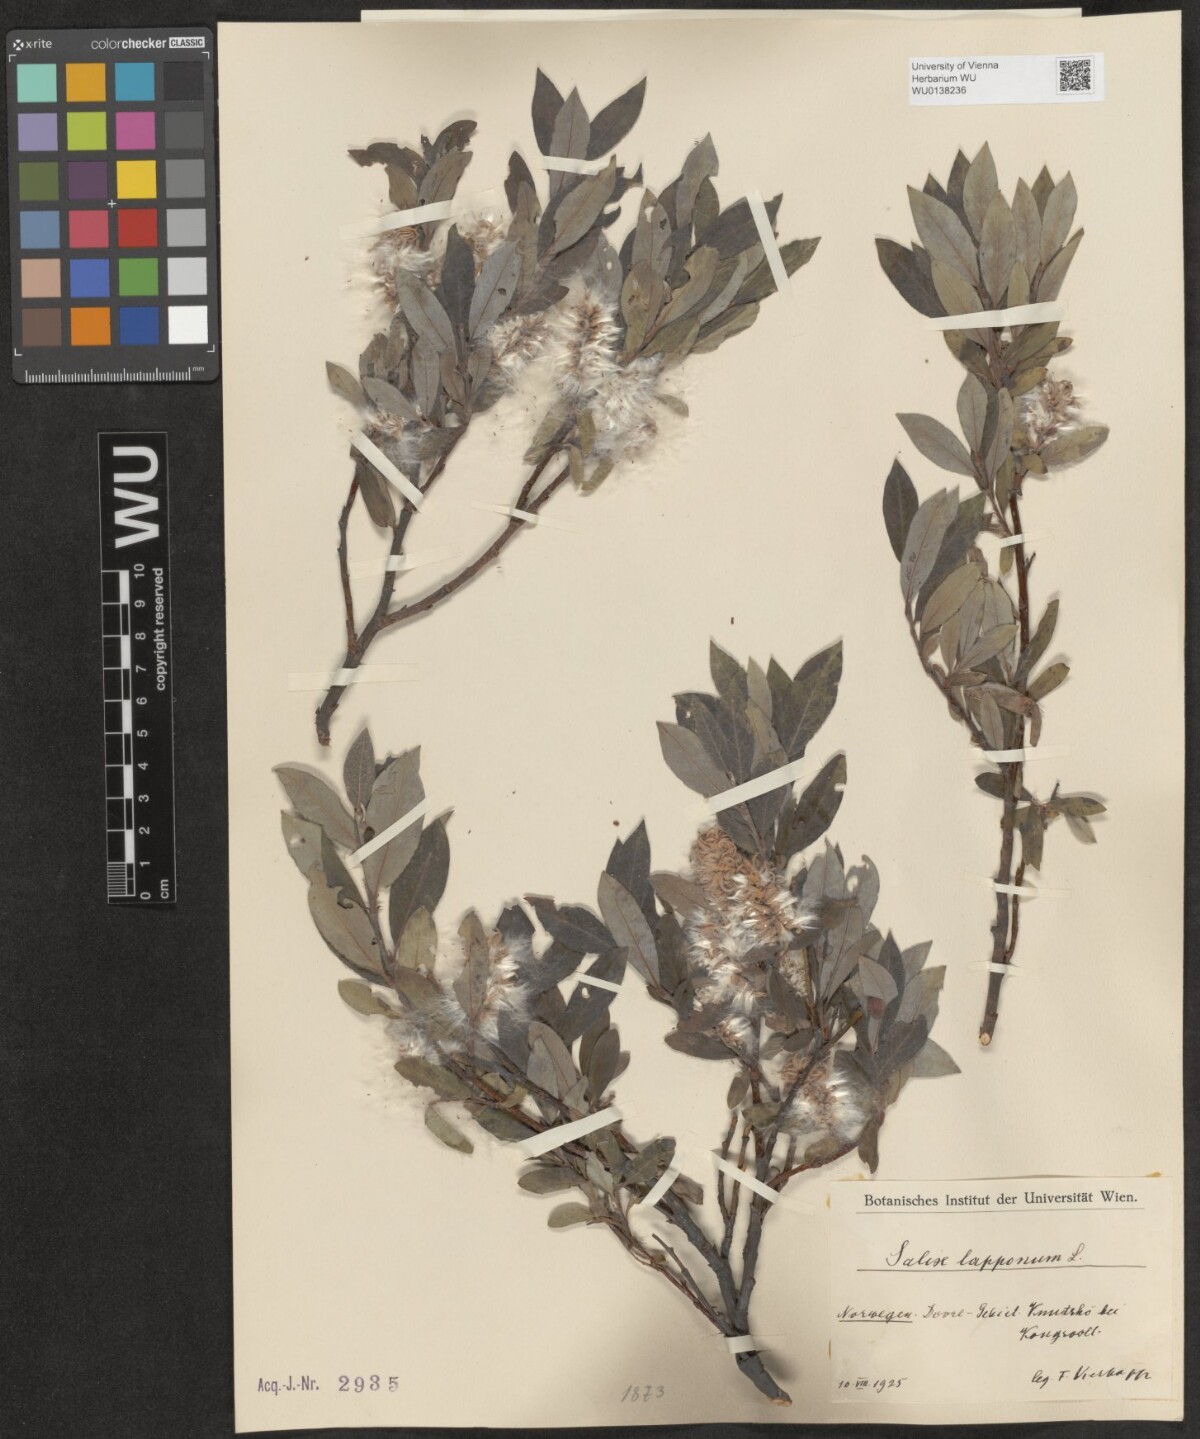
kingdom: Plantae
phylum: Tracheophyta
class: Magnoliopsida
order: Malpighiales
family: Salicaceae
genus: Salix
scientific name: Salix lapponum
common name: Downy willow
